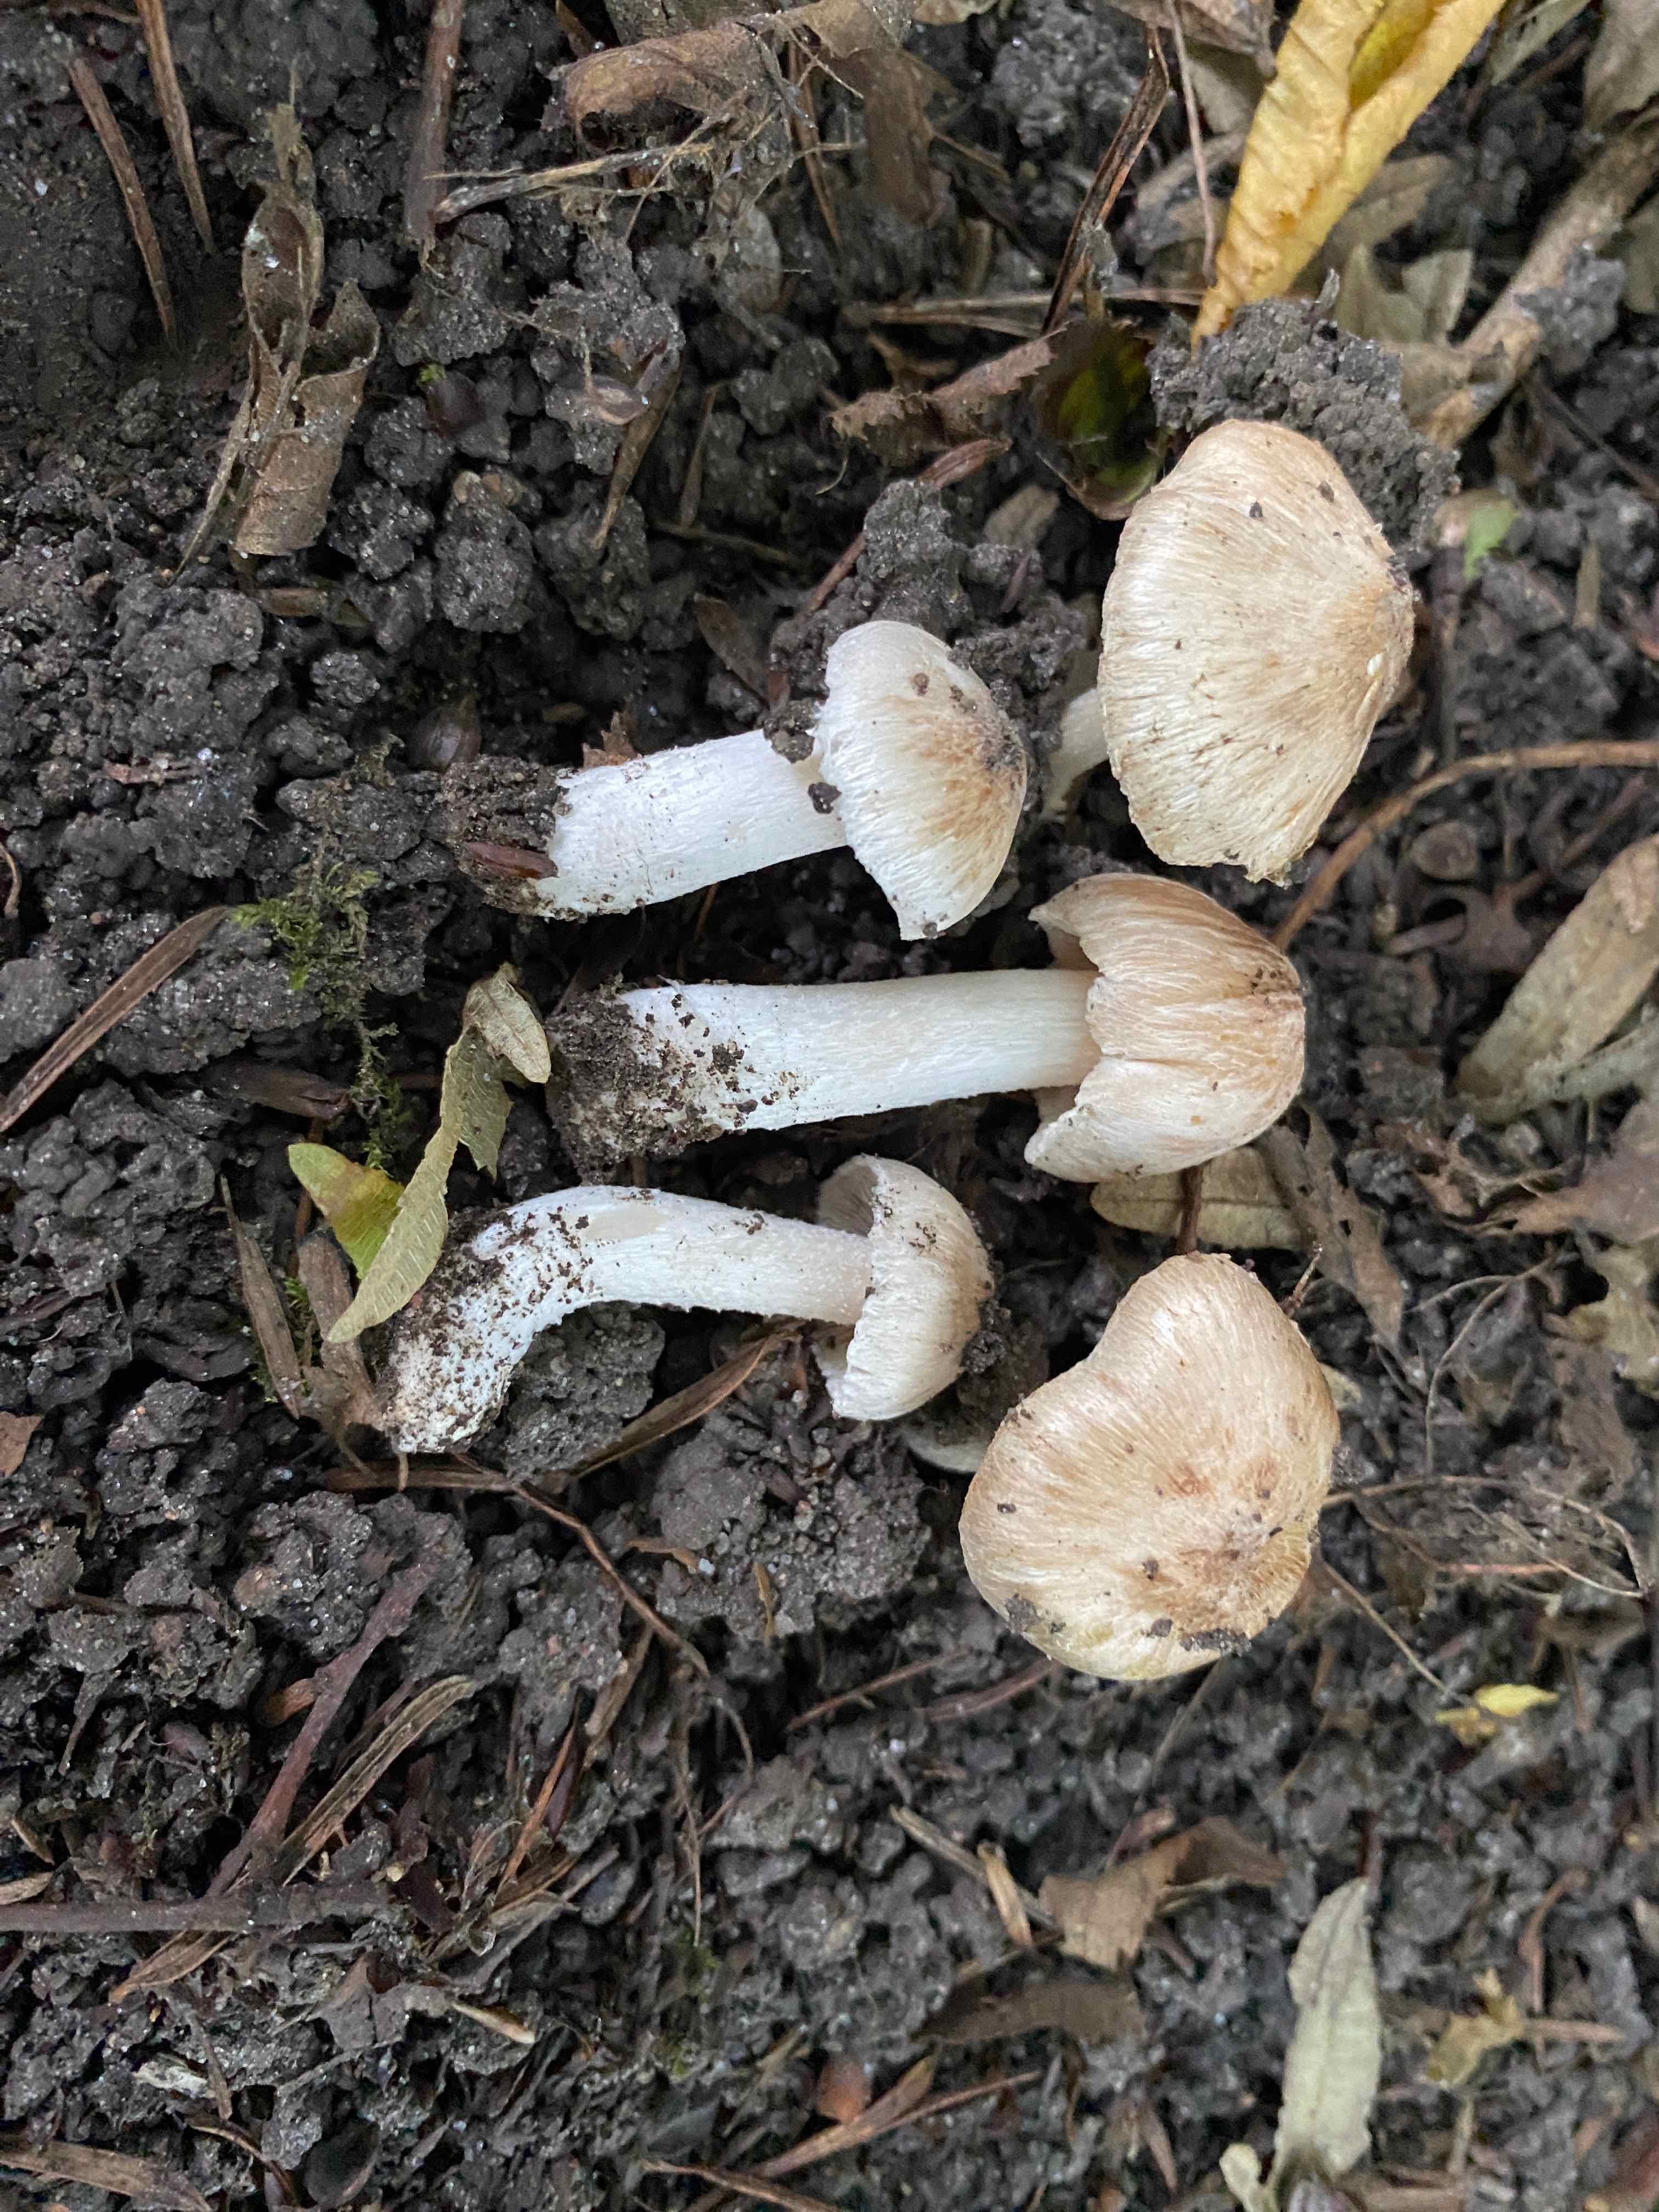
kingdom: Fungi
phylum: Basidiomycota
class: Agaricomycetes
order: Agaricales
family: Inocybaceae
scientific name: Inocybaceae
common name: trævlhatfamilien
